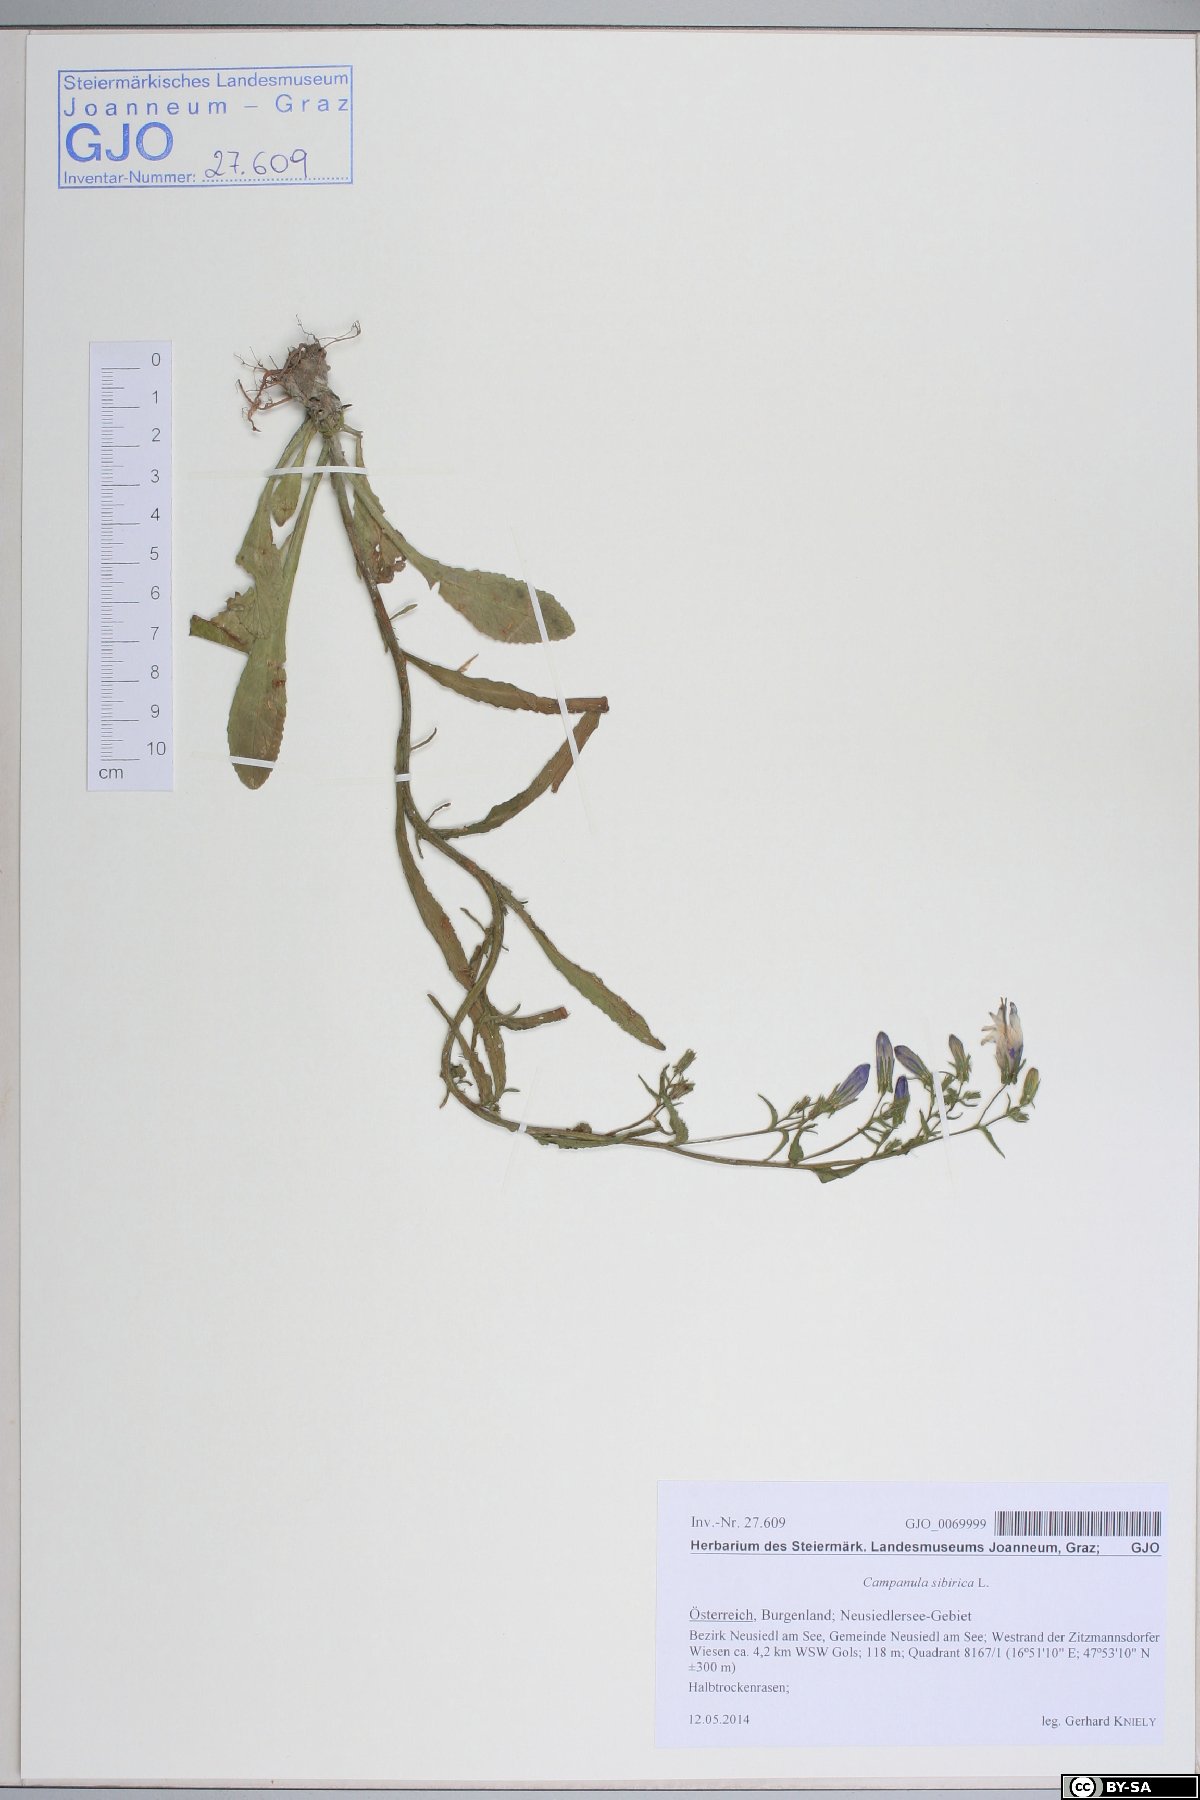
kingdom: Plantae
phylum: Tracheophyta
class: Magnoliopsida
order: Asterales
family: Campanulaceae
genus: Campanula
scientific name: Campanula sibirica
